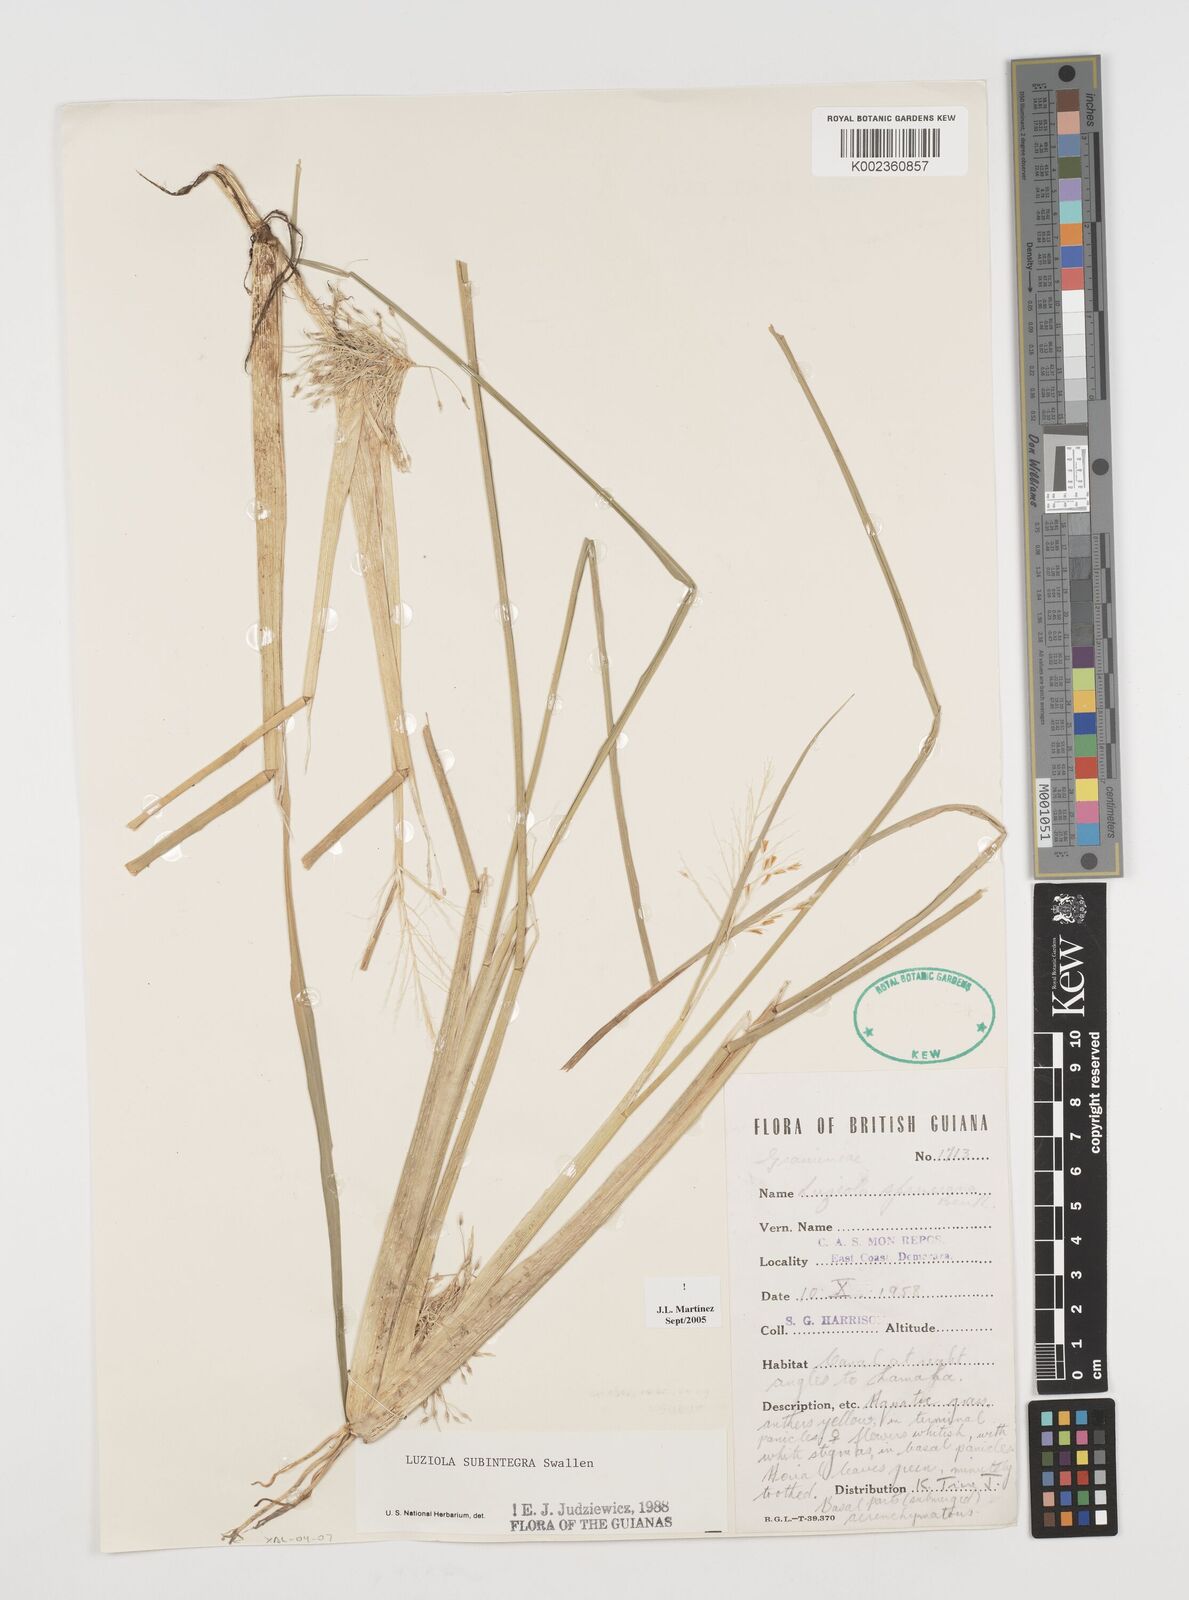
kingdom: Plantae
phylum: Tracheophyta
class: Liliopsida
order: Poales
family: Poaceae
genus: Luziola
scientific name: Luziola subintegra
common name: Large watergrass
